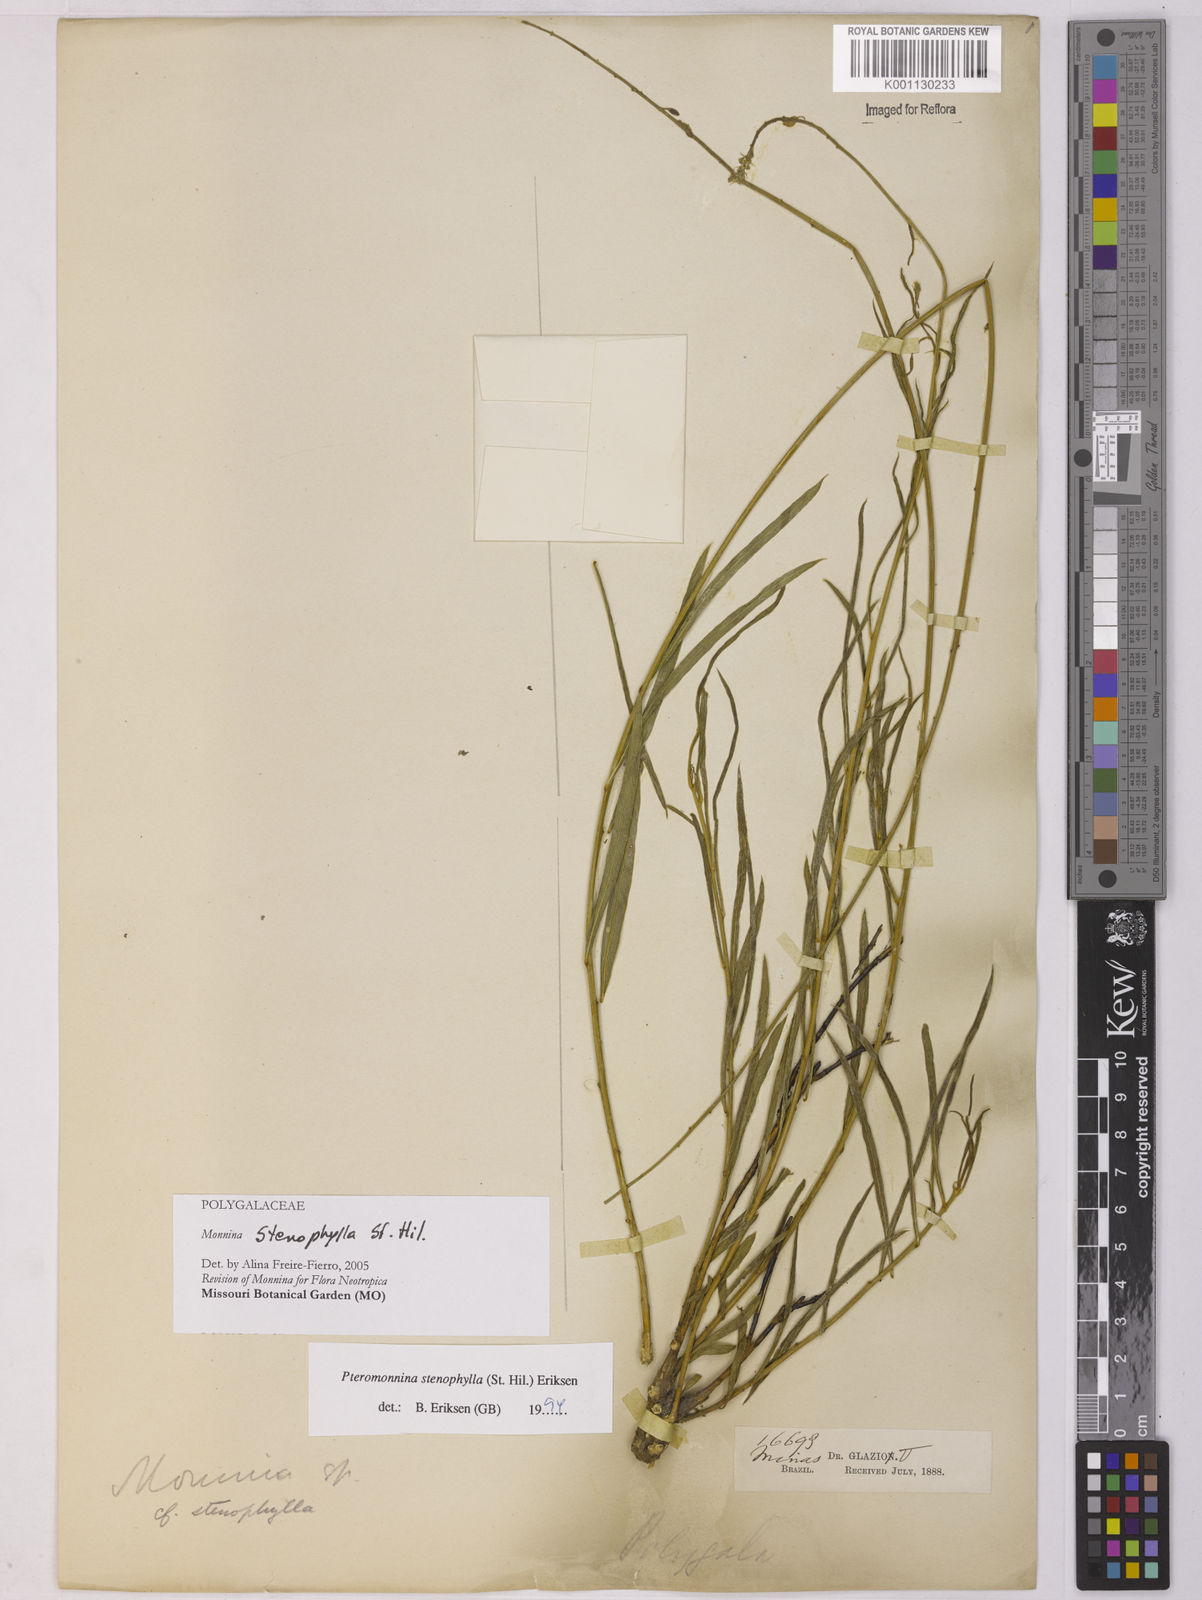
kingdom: Plantae
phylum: Tracheophyta
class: Magnoliopsida
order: Fabales
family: Polygalaceae
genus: Monnina
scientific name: Monnina stenophylla
